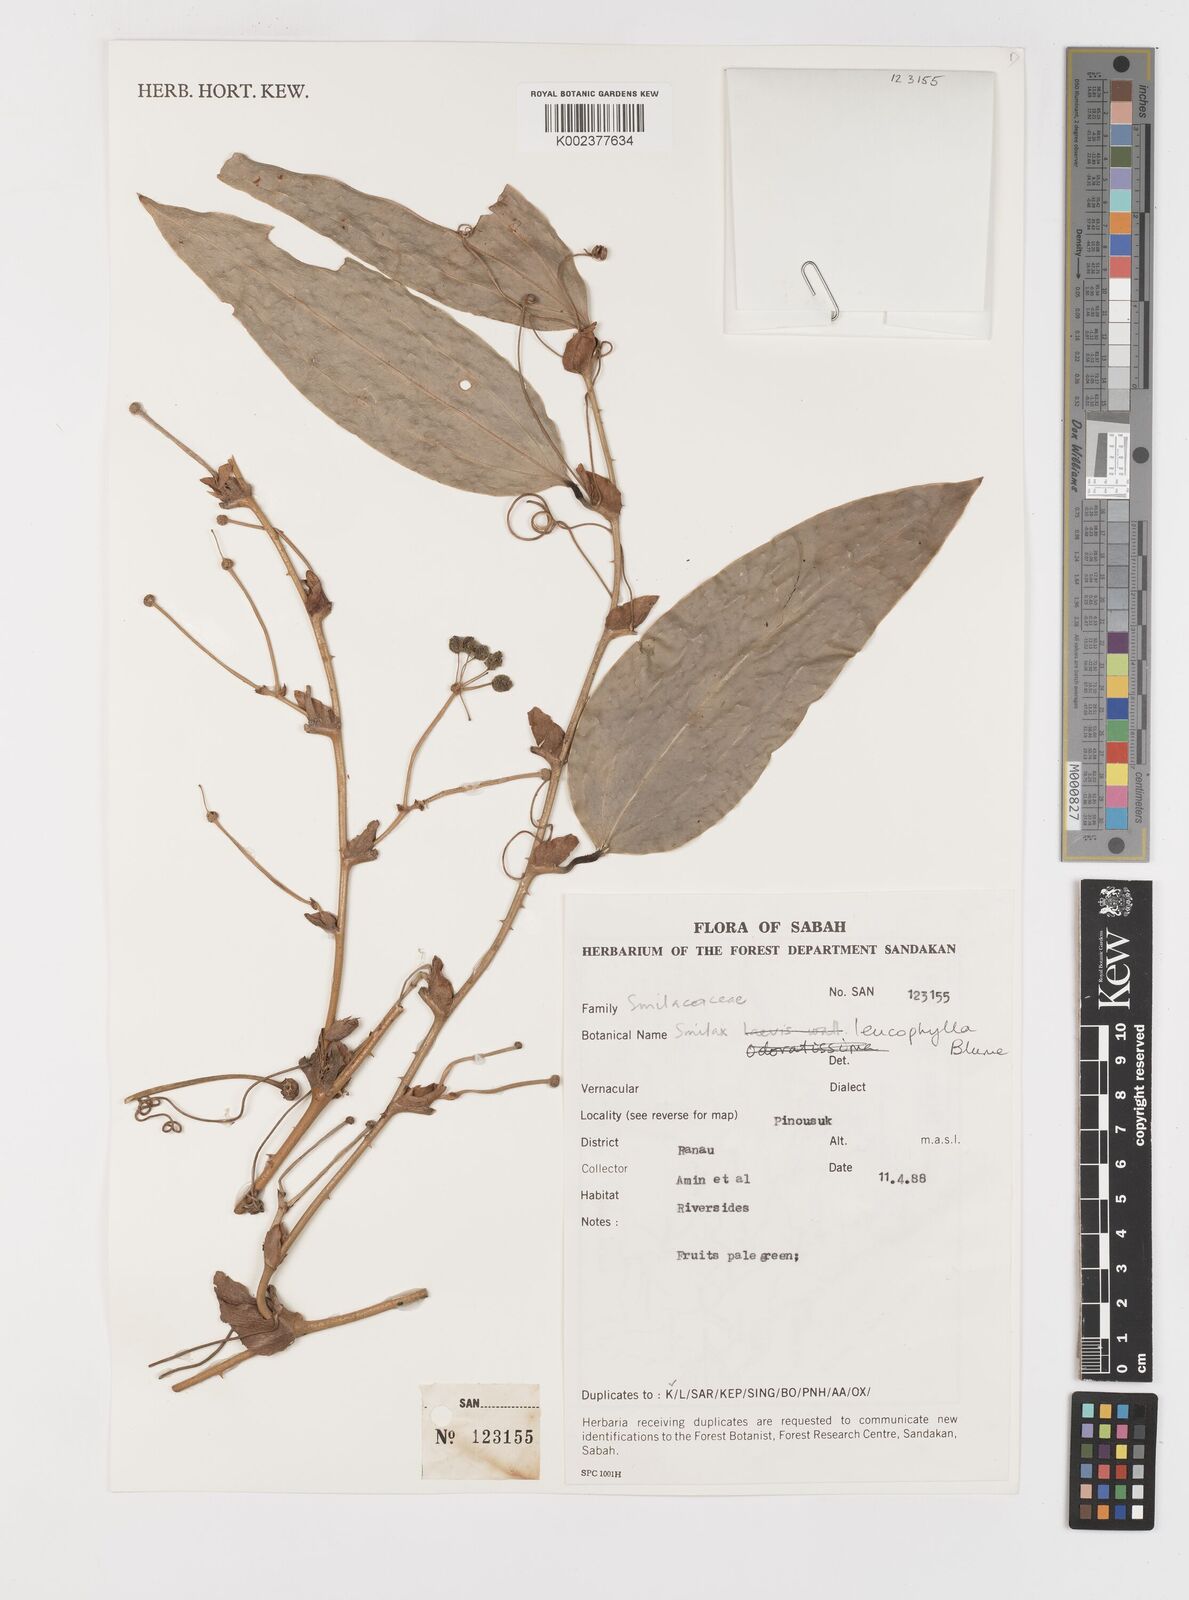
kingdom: Plantae
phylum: Tracheophyta
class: Liliopsida
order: Liliales
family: Smilacaceae
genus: Smilax
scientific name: Smilax leucophylla
